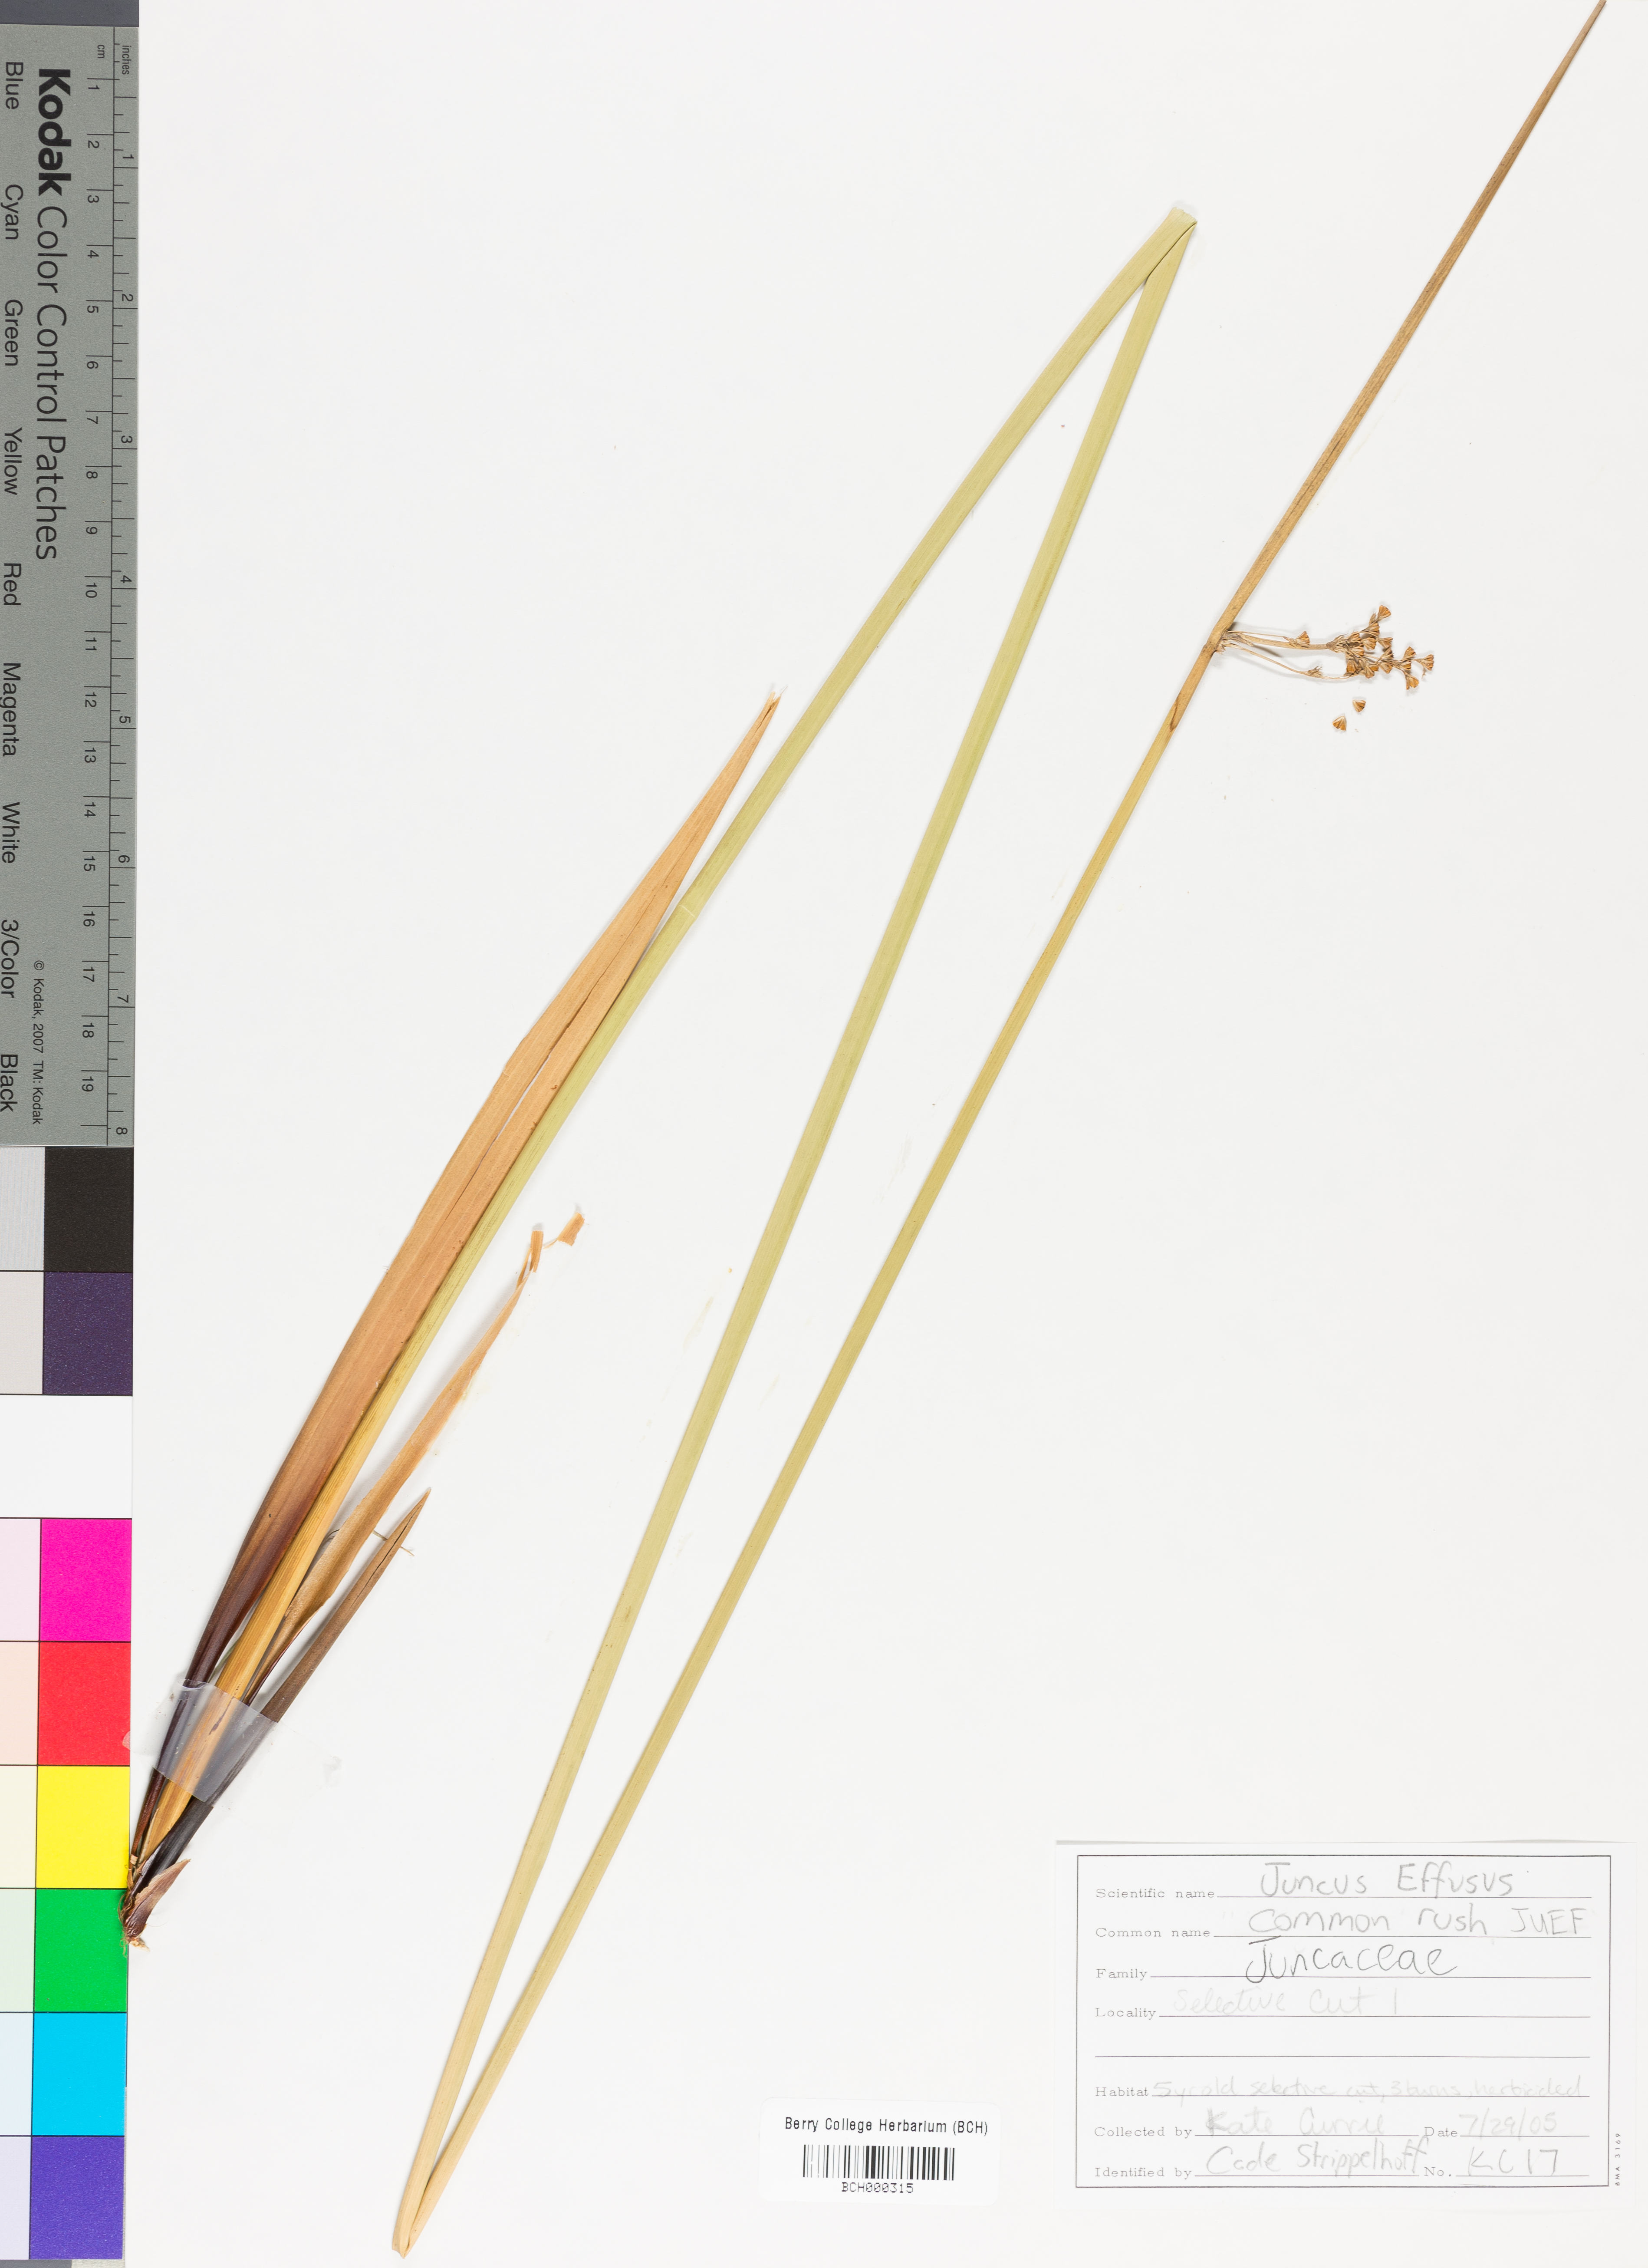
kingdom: Plantae
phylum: Tracheophyta
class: Liliopsida
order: Poales
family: Juncaceae
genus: Juncus
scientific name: Juncus effusus
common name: Soft rush
